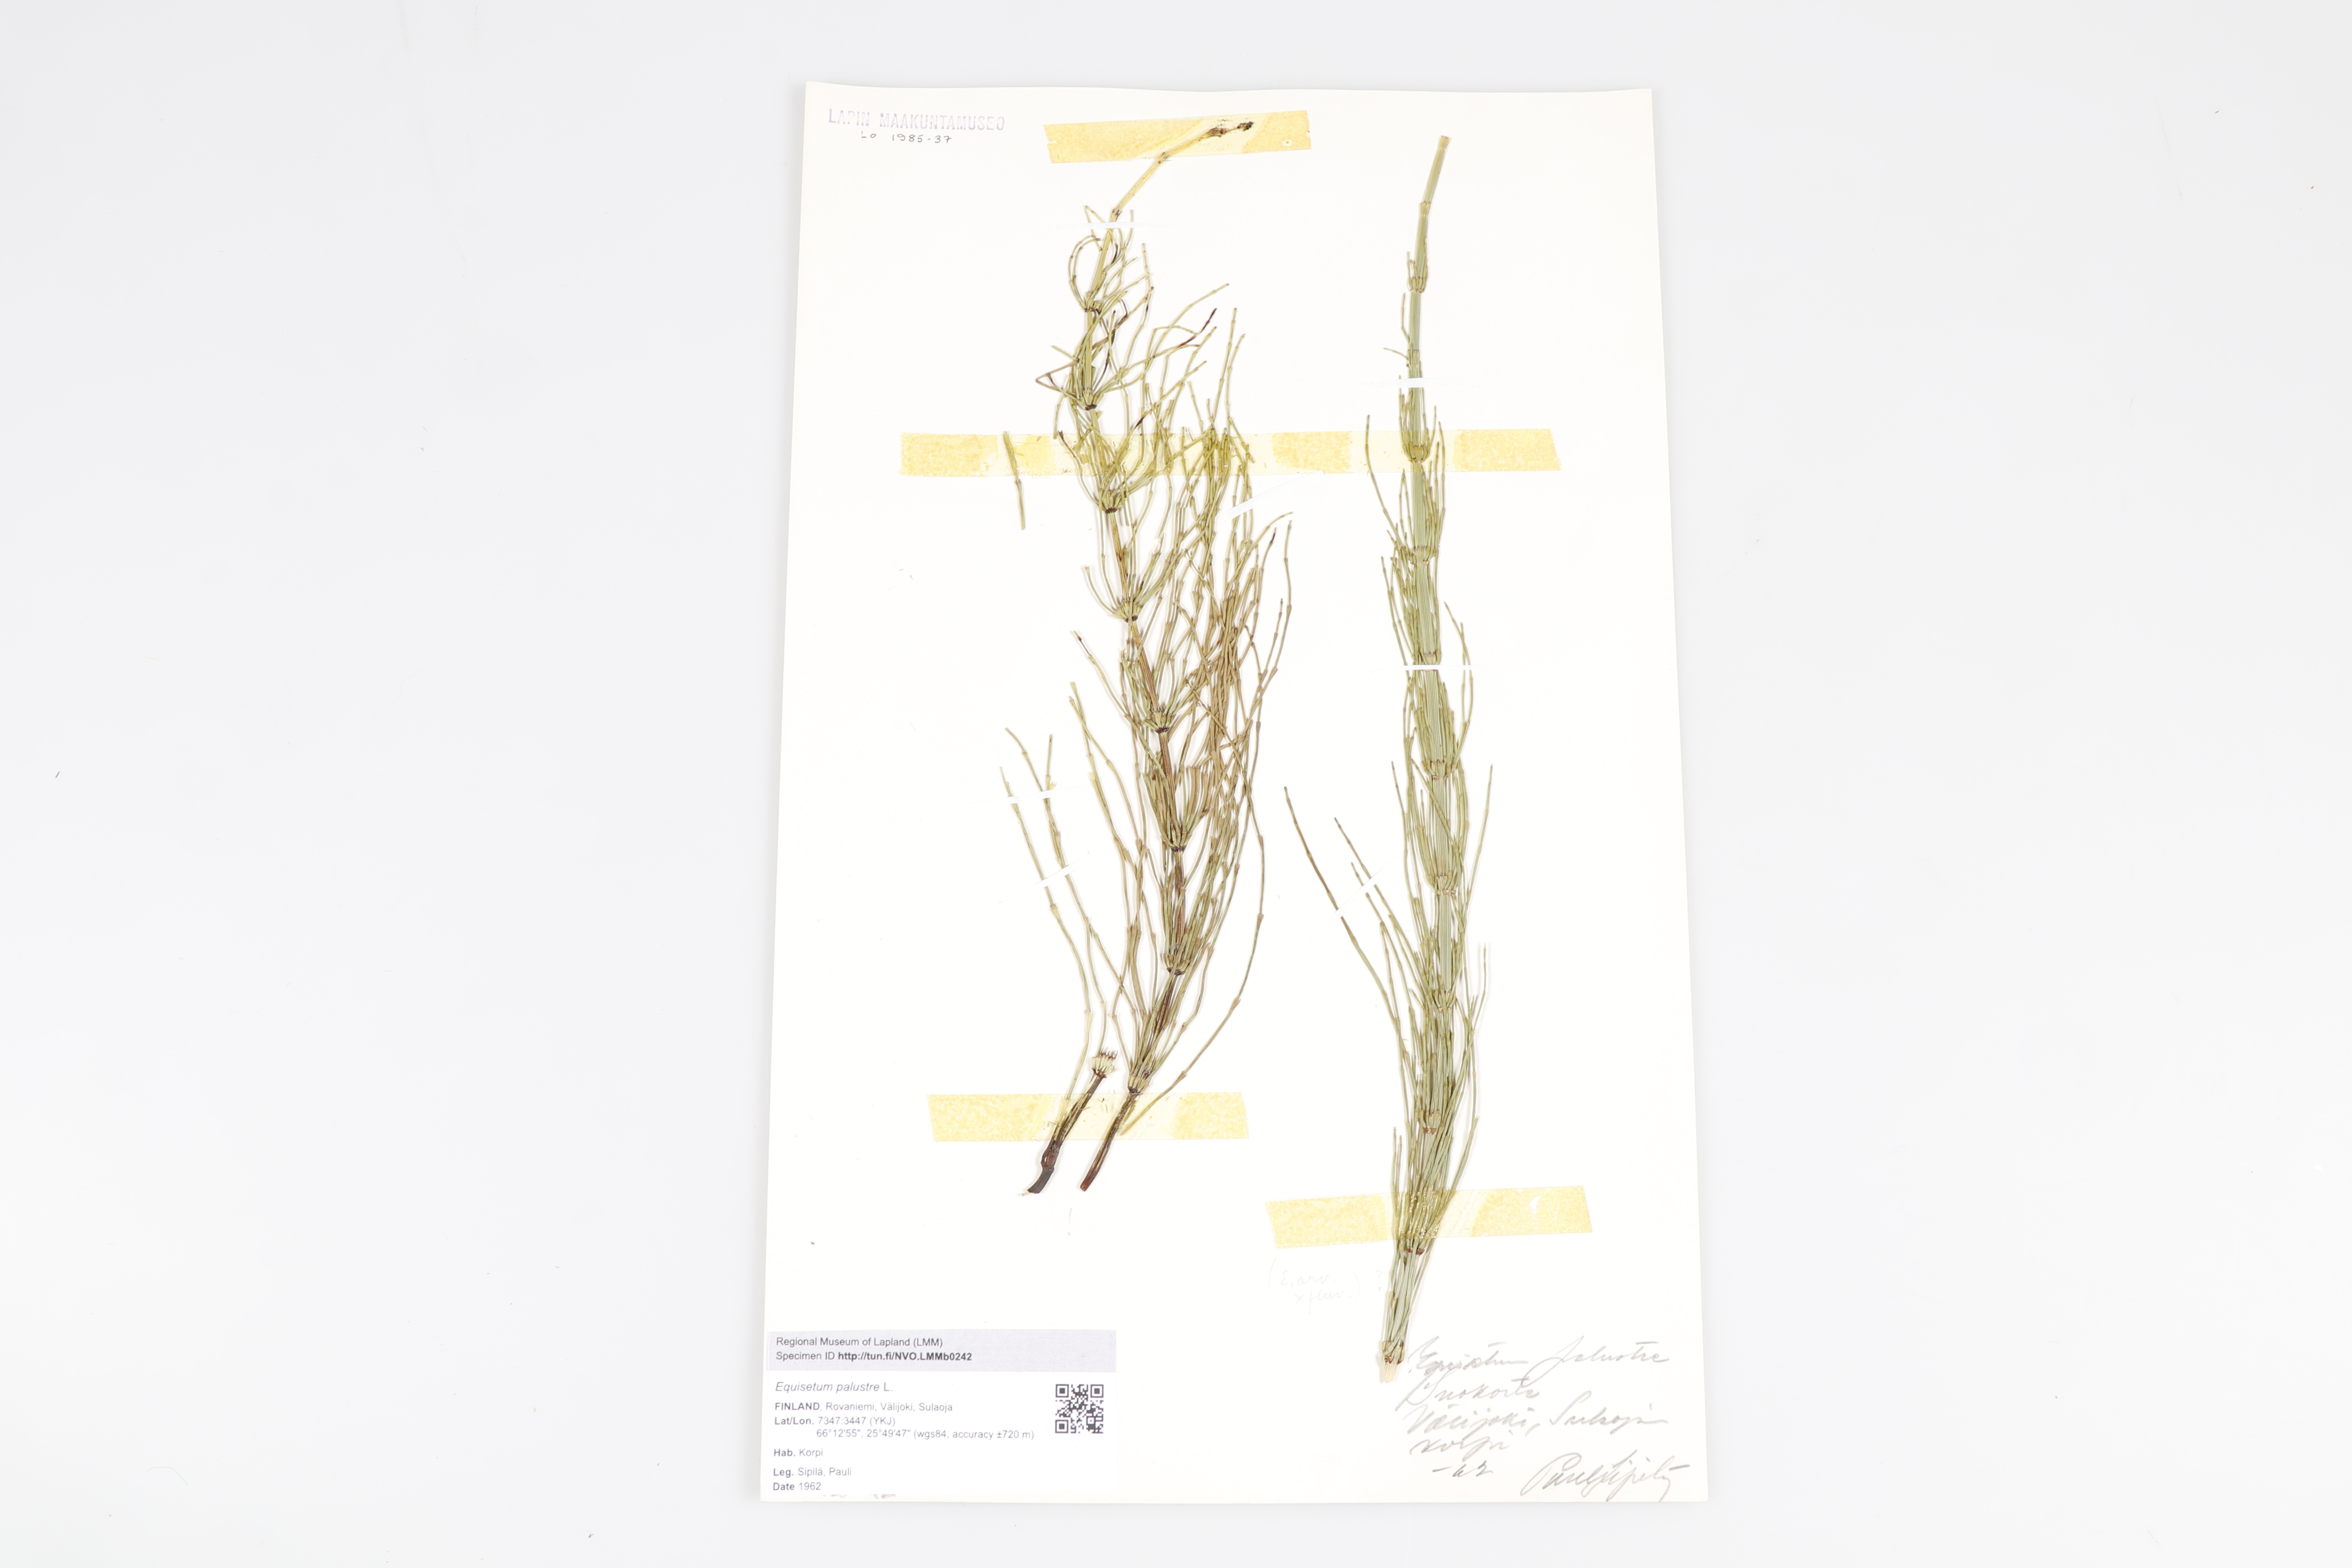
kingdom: Plantae
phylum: Tracheophyta
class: Polypodiopsida
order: Equisetales
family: Equisetaceae
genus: Equisetum
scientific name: Equisetum palustre
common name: Marsh horsetail
